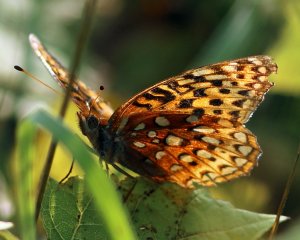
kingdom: Animalia
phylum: Arthropoda
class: Insecta
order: Lepidoptera
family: Nymphalidae
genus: Speyeria
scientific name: Speyeria aphrodite
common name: Aphrodite Fritillary
